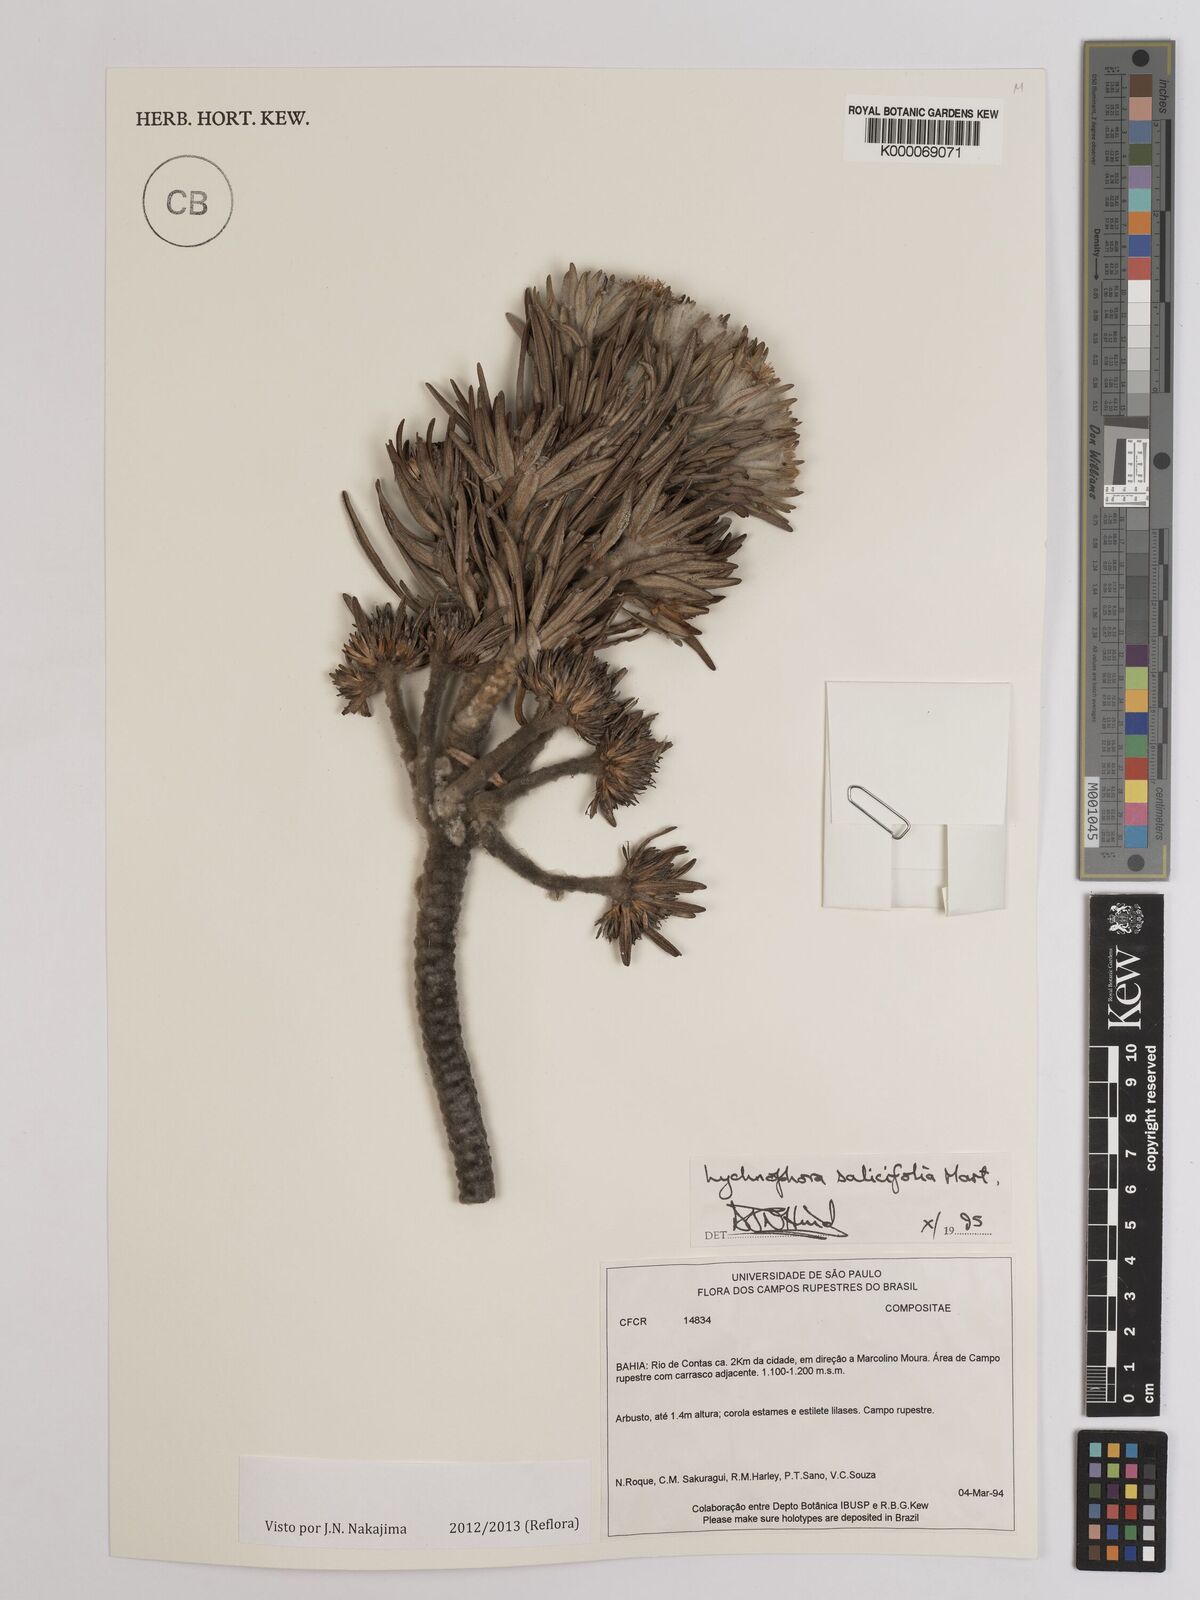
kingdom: Plantae
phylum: Tracheophyta
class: Magnoliopsida
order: Asterales
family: Asteraceae
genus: Lychnophora
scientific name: Lychnophora salicifolia
